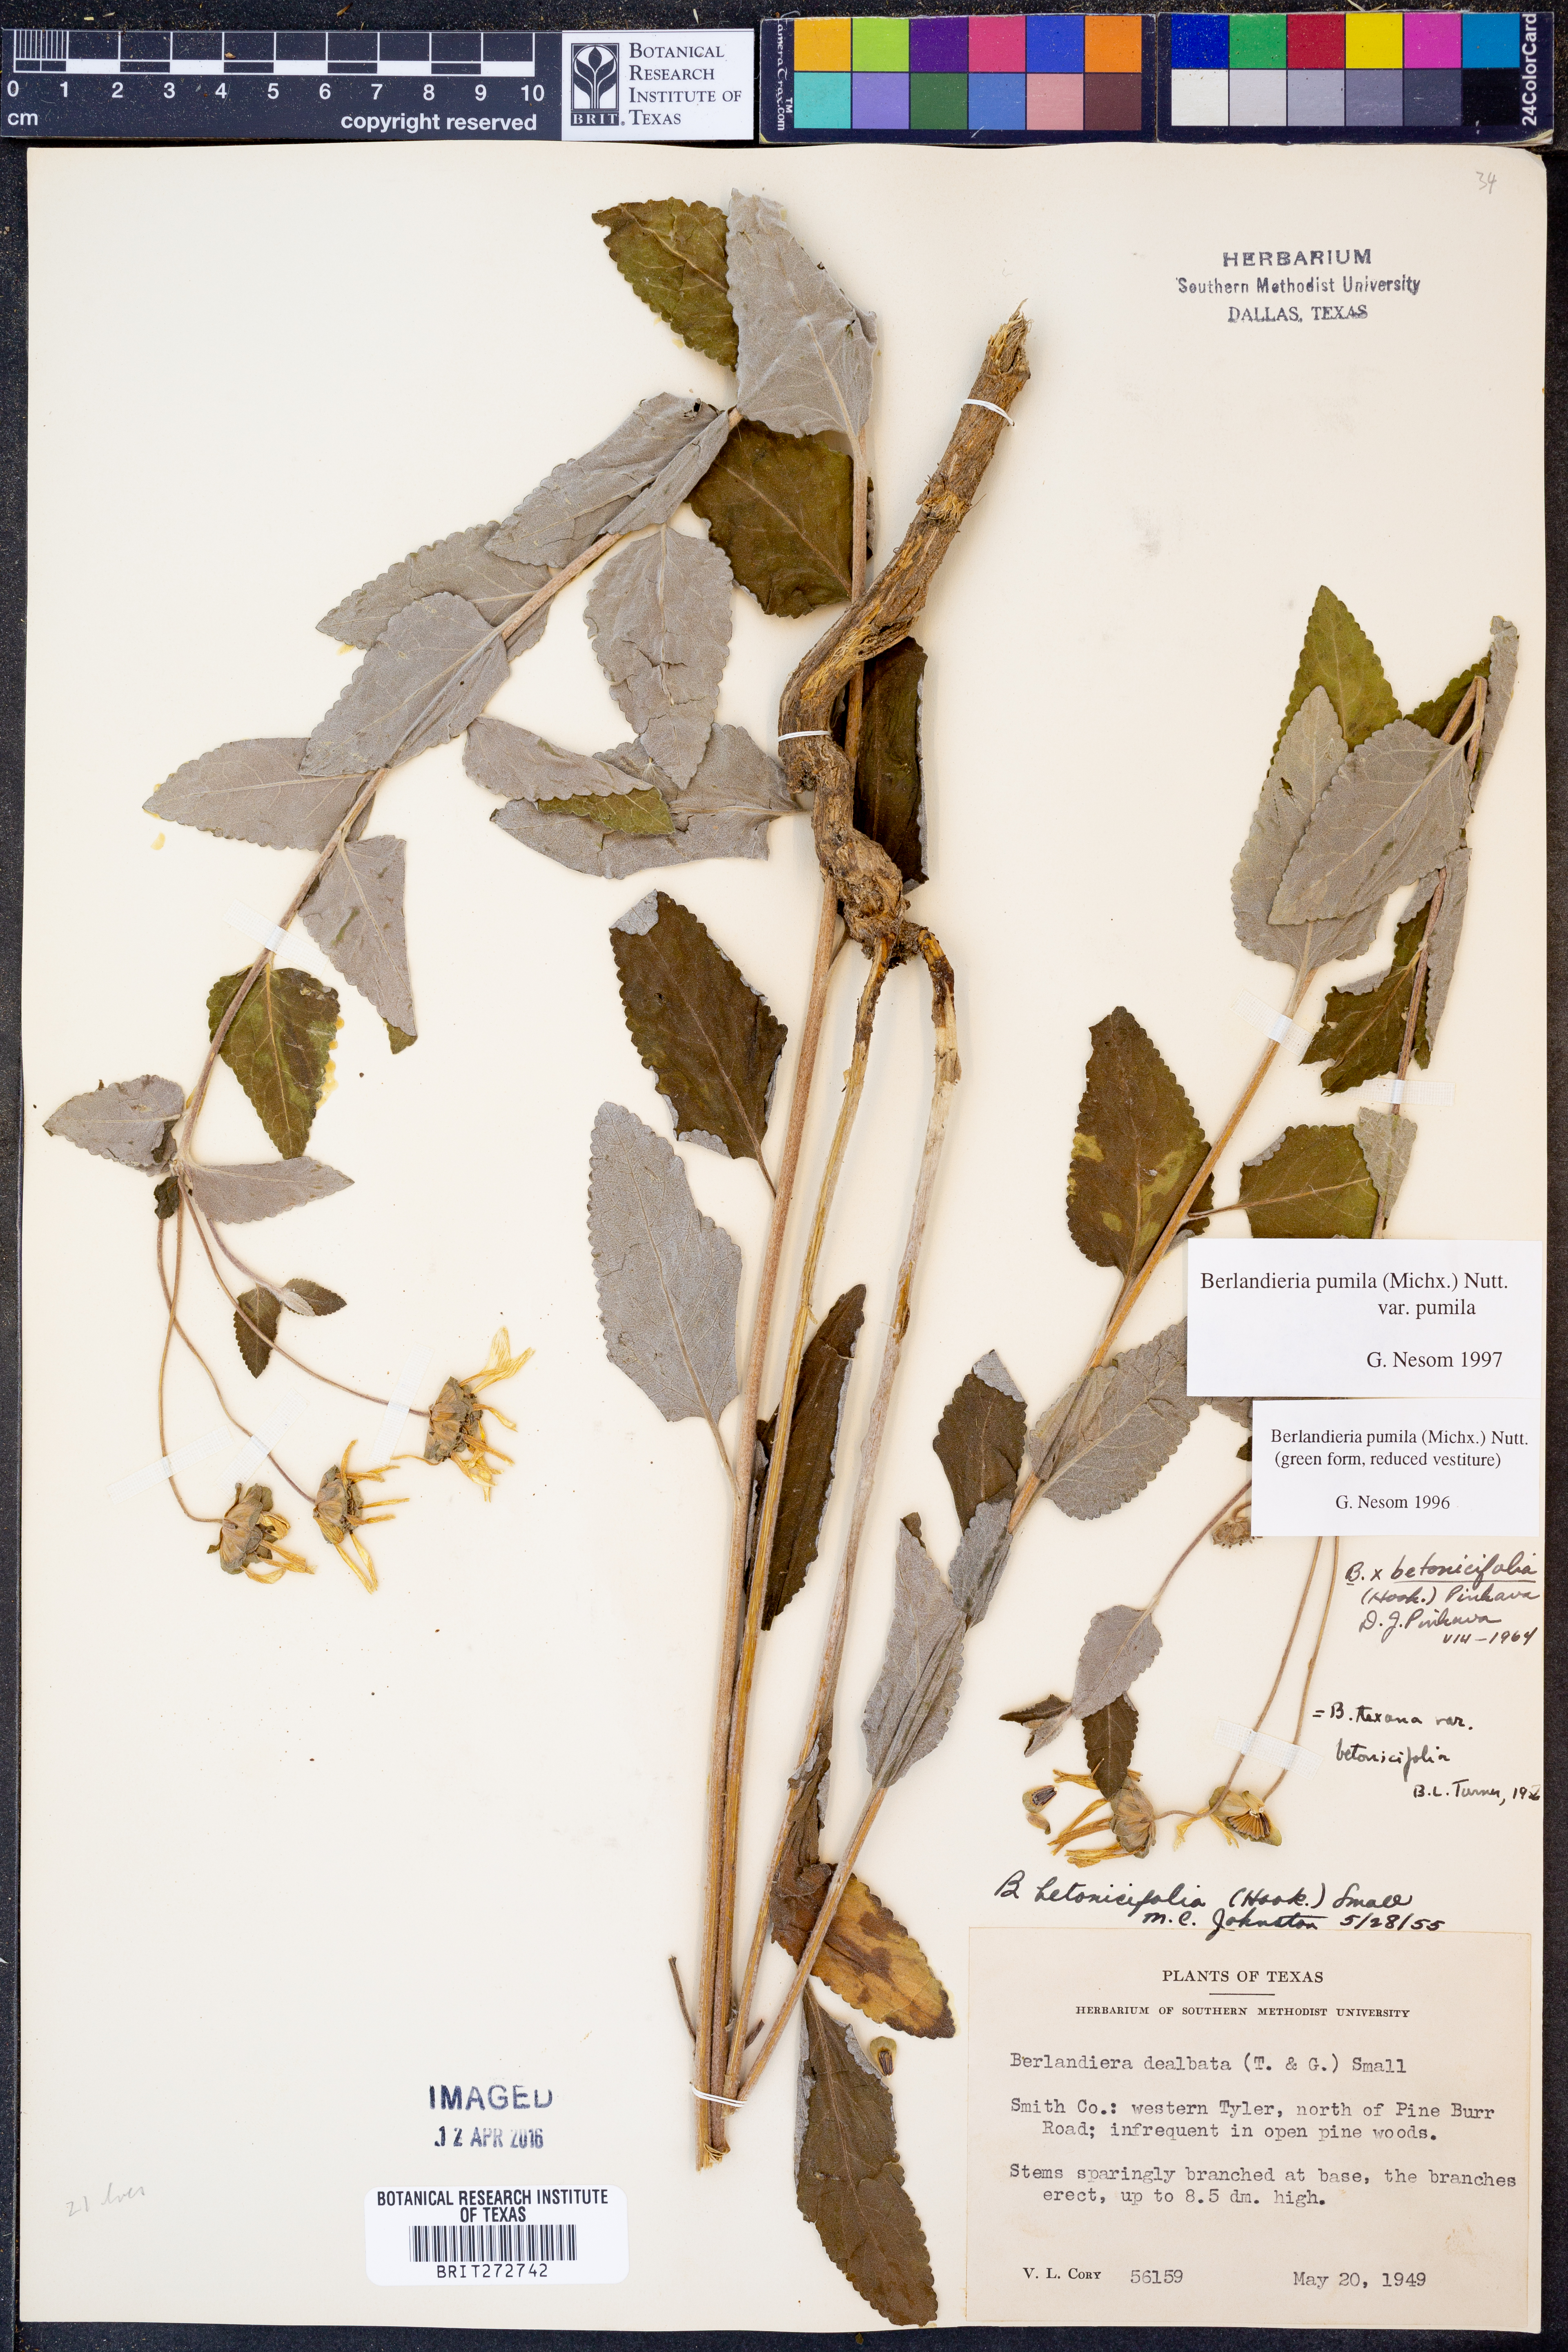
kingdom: Plantae
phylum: Tracheophyta
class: Magnoliopsida
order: Asterales
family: Asteraceae
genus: Berlandiera
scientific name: Berlandiera pumila
